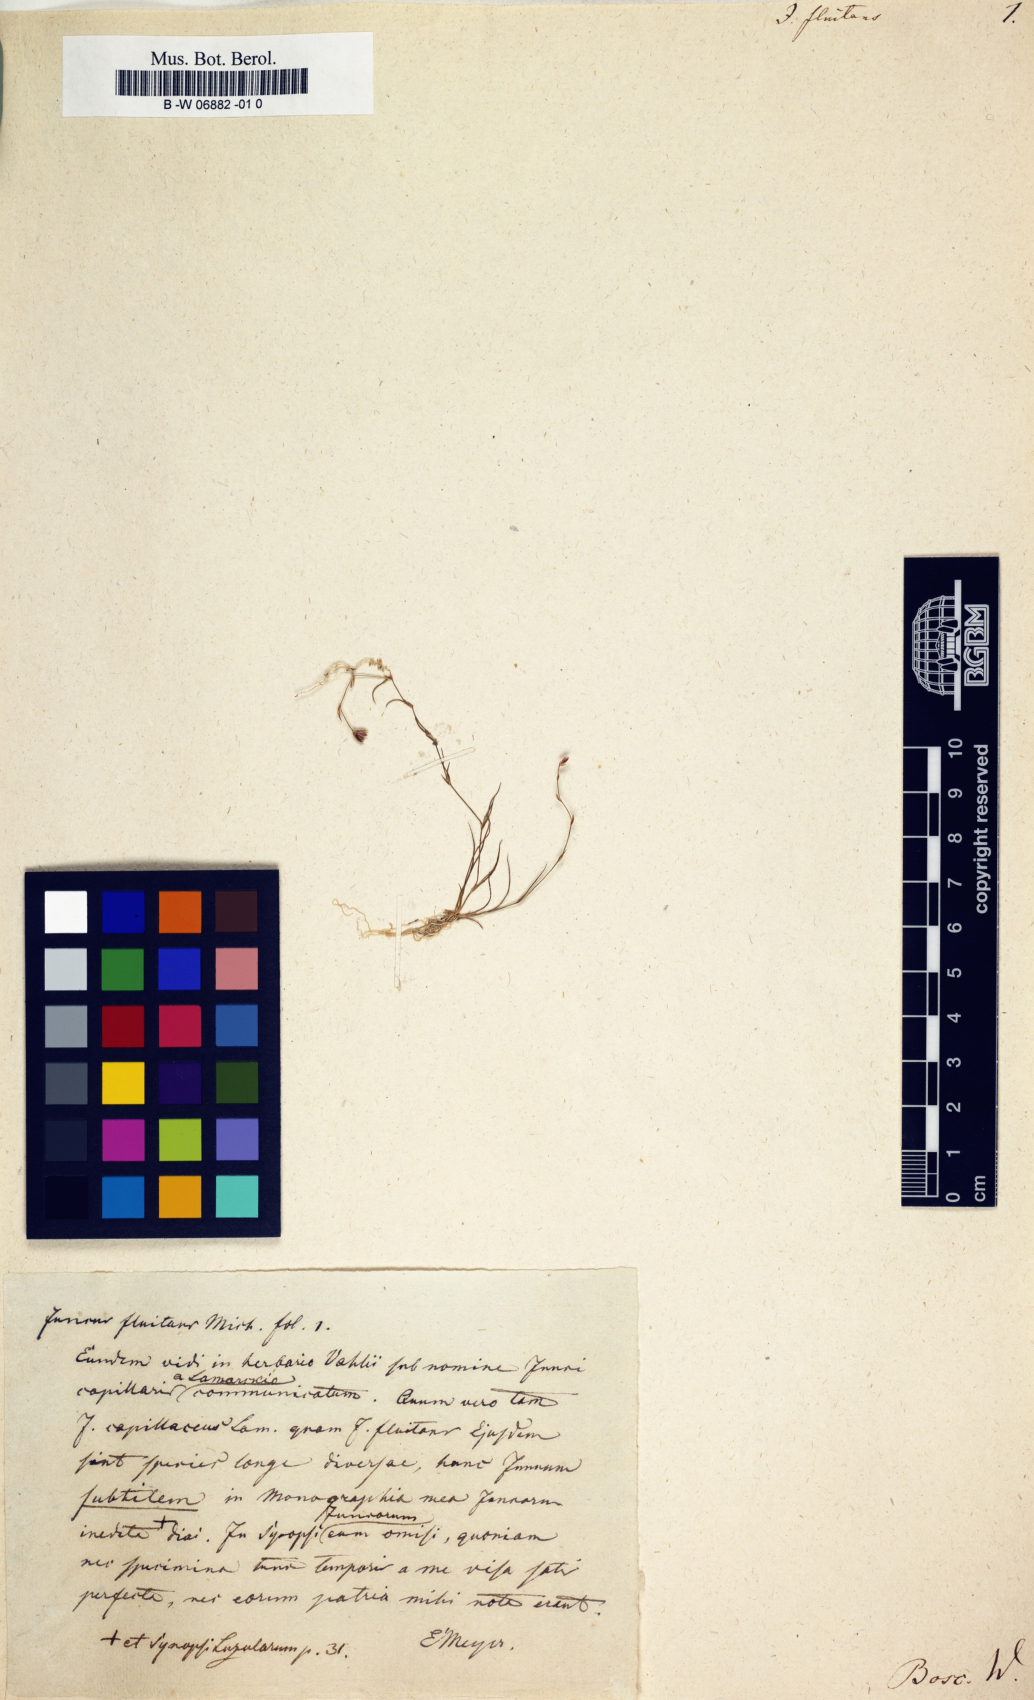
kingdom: Plantae
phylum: Tracheophyta
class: Liliopsida
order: Poales
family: Juncaceae
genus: Juncus
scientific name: Juncus fluitans
